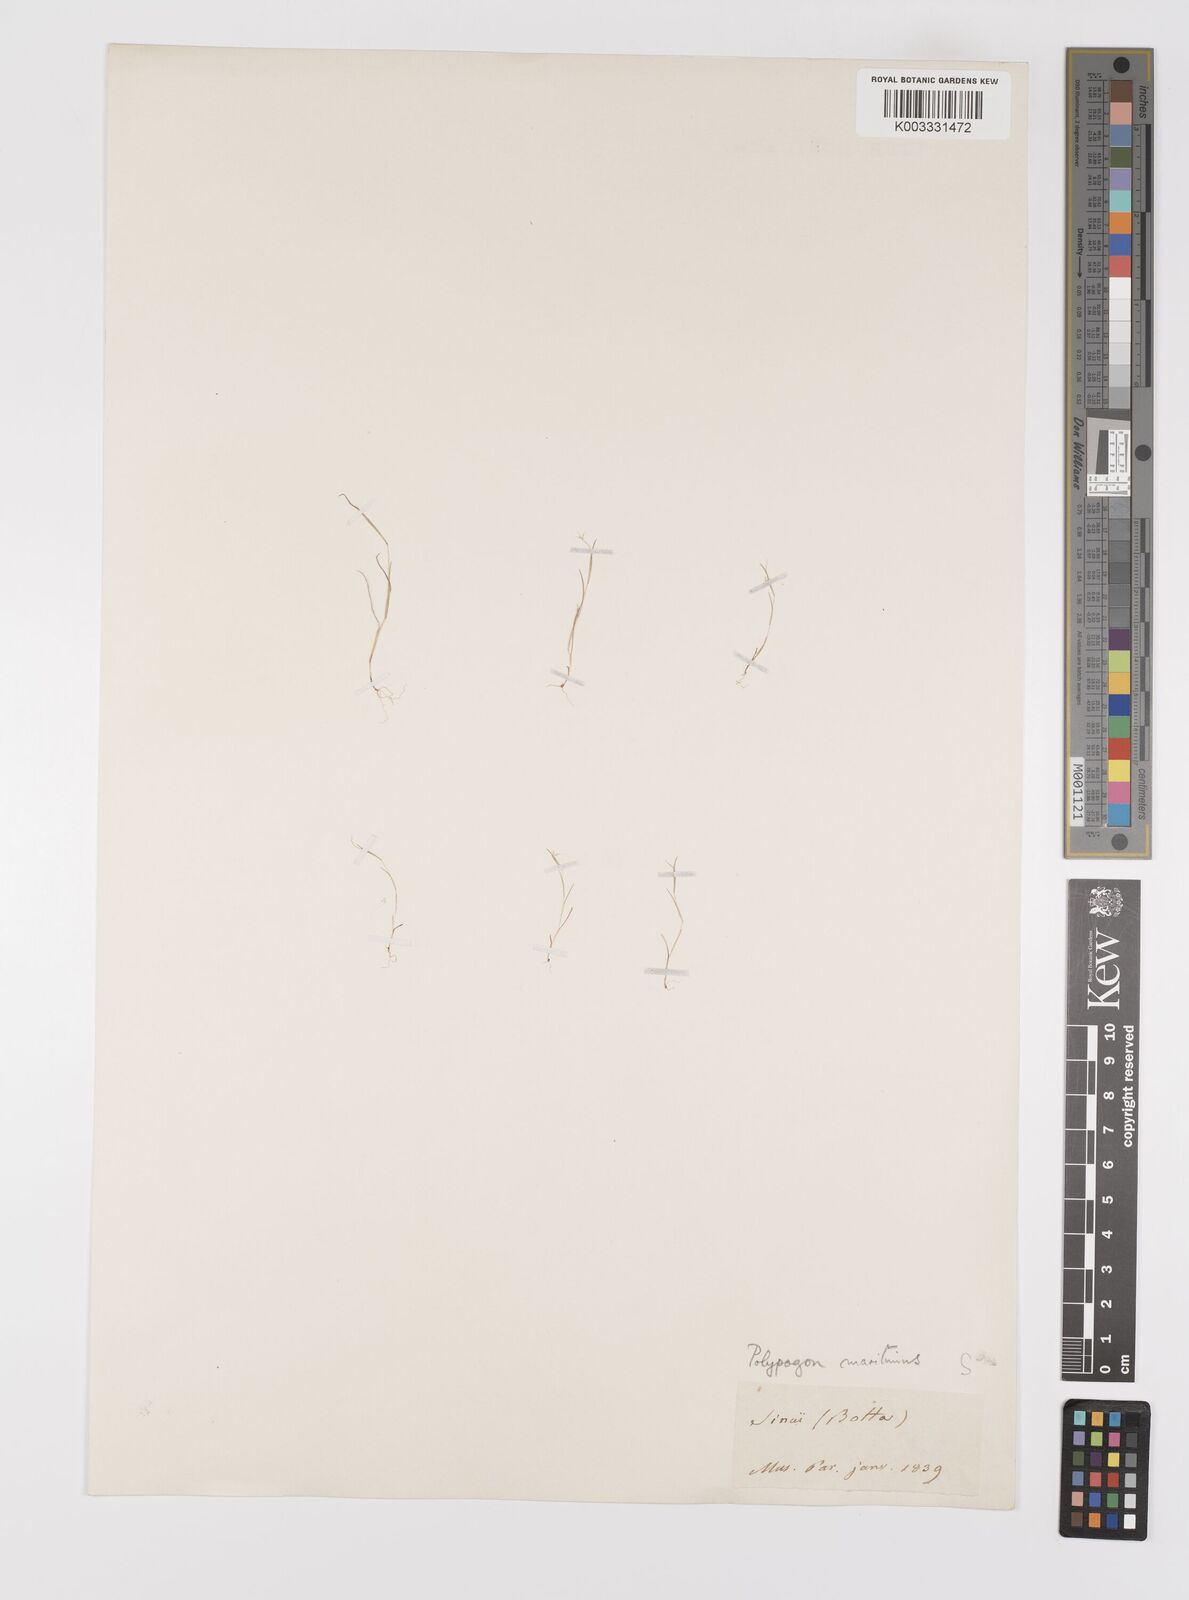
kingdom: Plantae
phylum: Tracheophyta
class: Liliopsida
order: Poales
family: Poaceae
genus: Polypogon
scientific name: Polypogon maritimus
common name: Mediterranean rabbitsfoot grass
